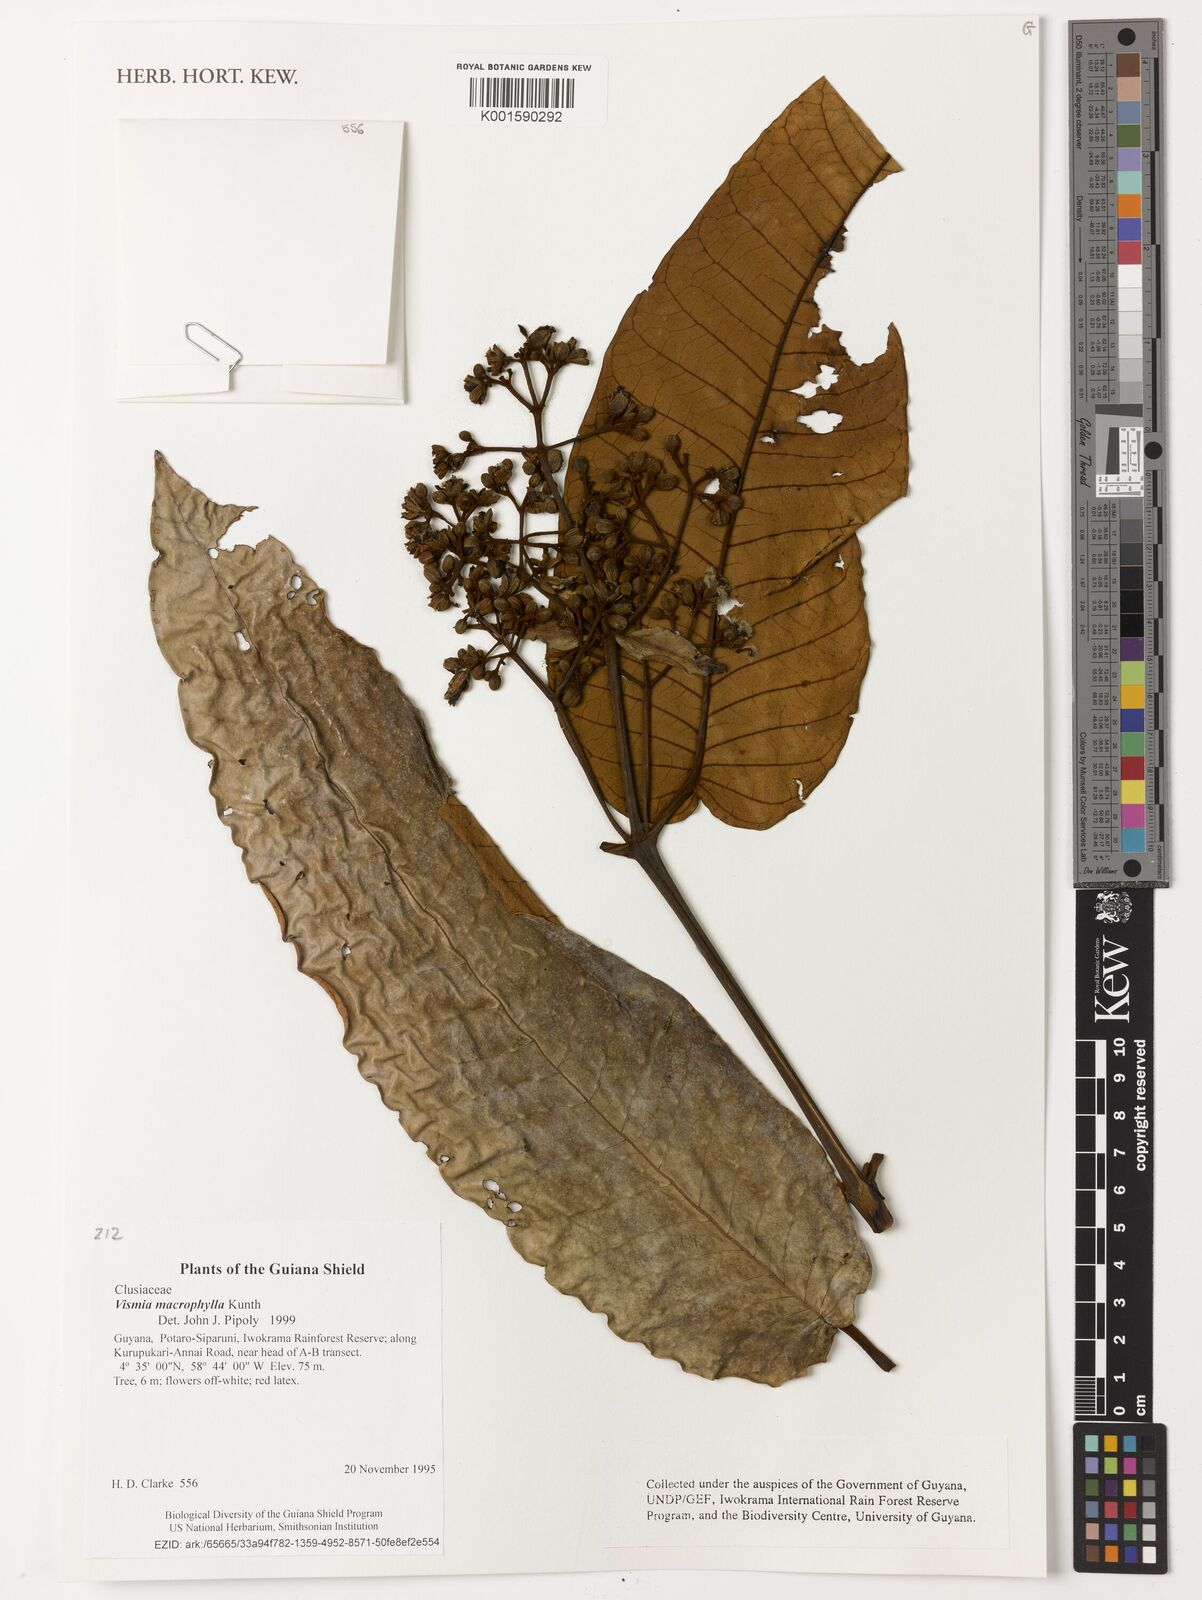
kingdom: Plantae
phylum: Tracheophyta
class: Magnoliopsida
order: Malpighiales
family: Hypericaceae
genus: Vismia
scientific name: Vismia macrophylla
